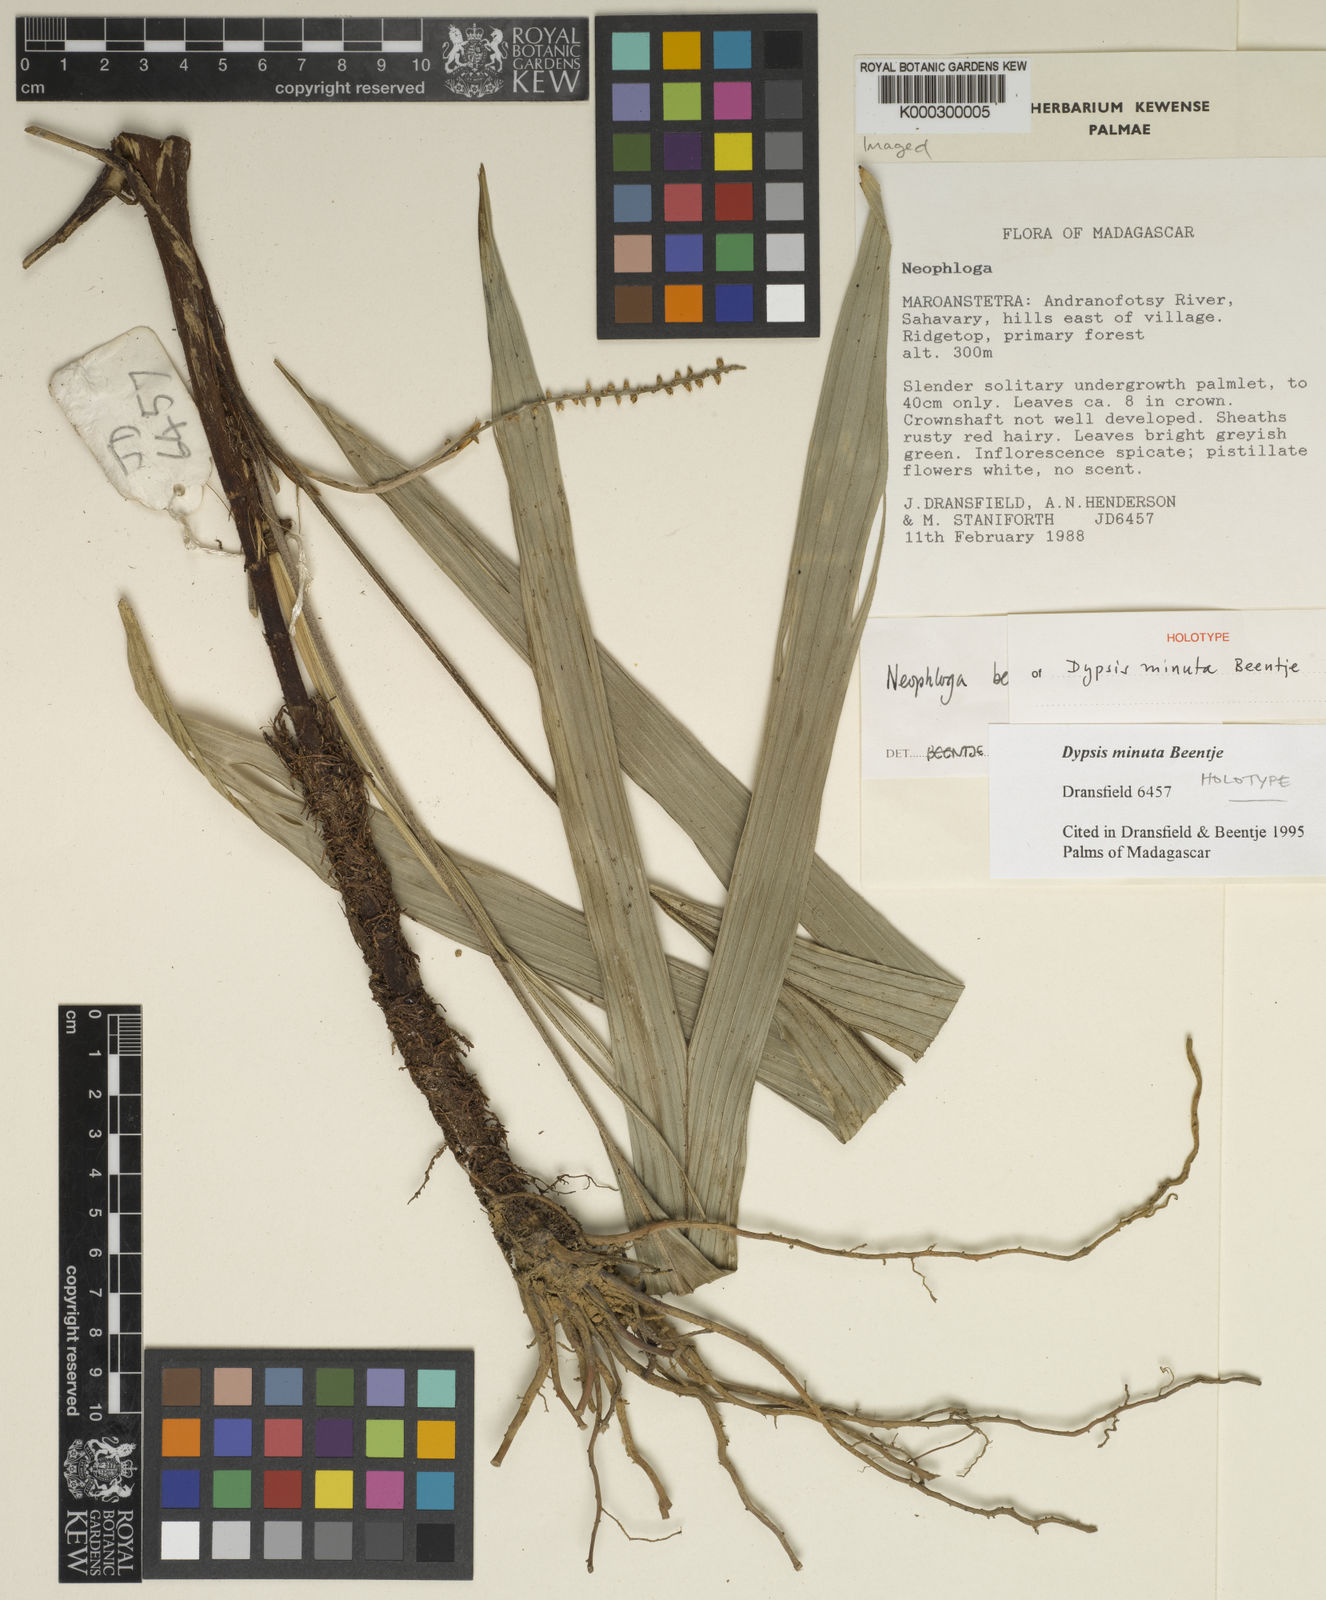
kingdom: Plantae
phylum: Tracheophyta
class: Liliopsida
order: Arecales
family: Arecaceae
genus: Dypsis
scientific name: Dypsis minuta
